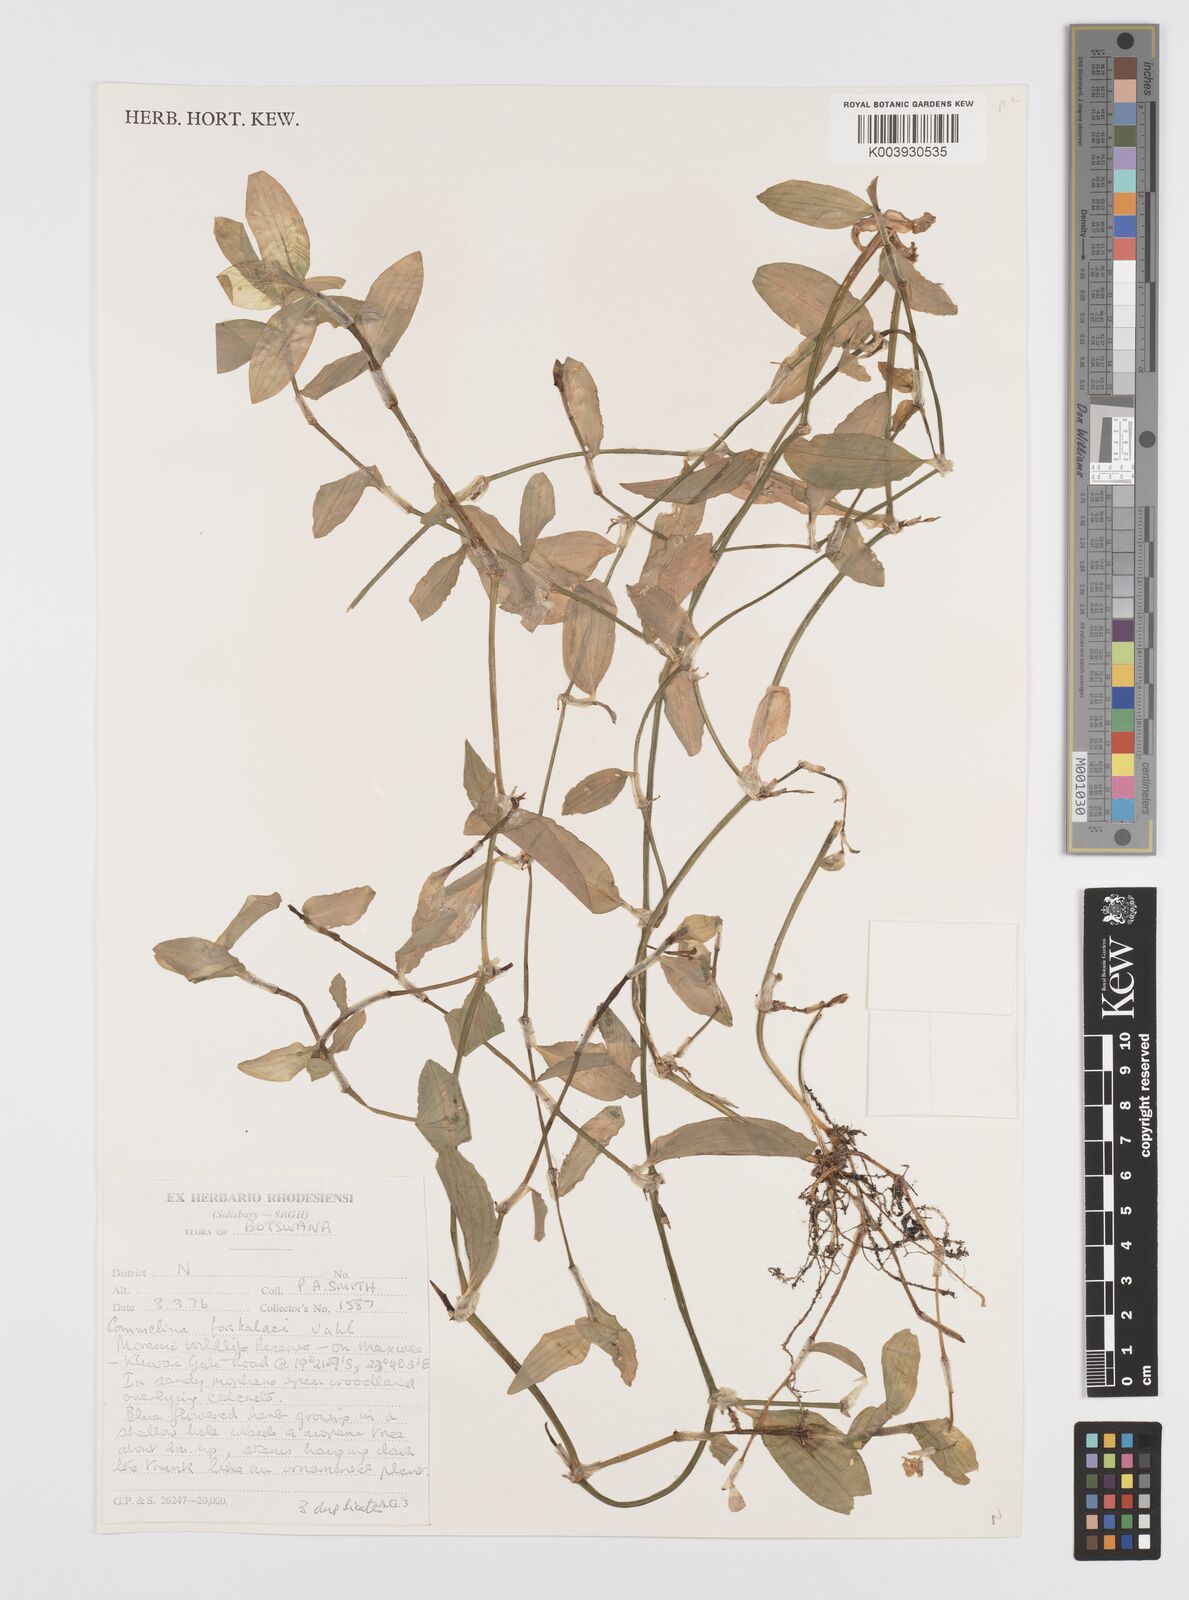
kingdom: Plantae
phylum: Tracheophyta
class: Liliopsida
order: Commelinales
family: Commelinaceae
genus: Commelina
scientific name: Commelina forskaolii
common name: Rat's ear
